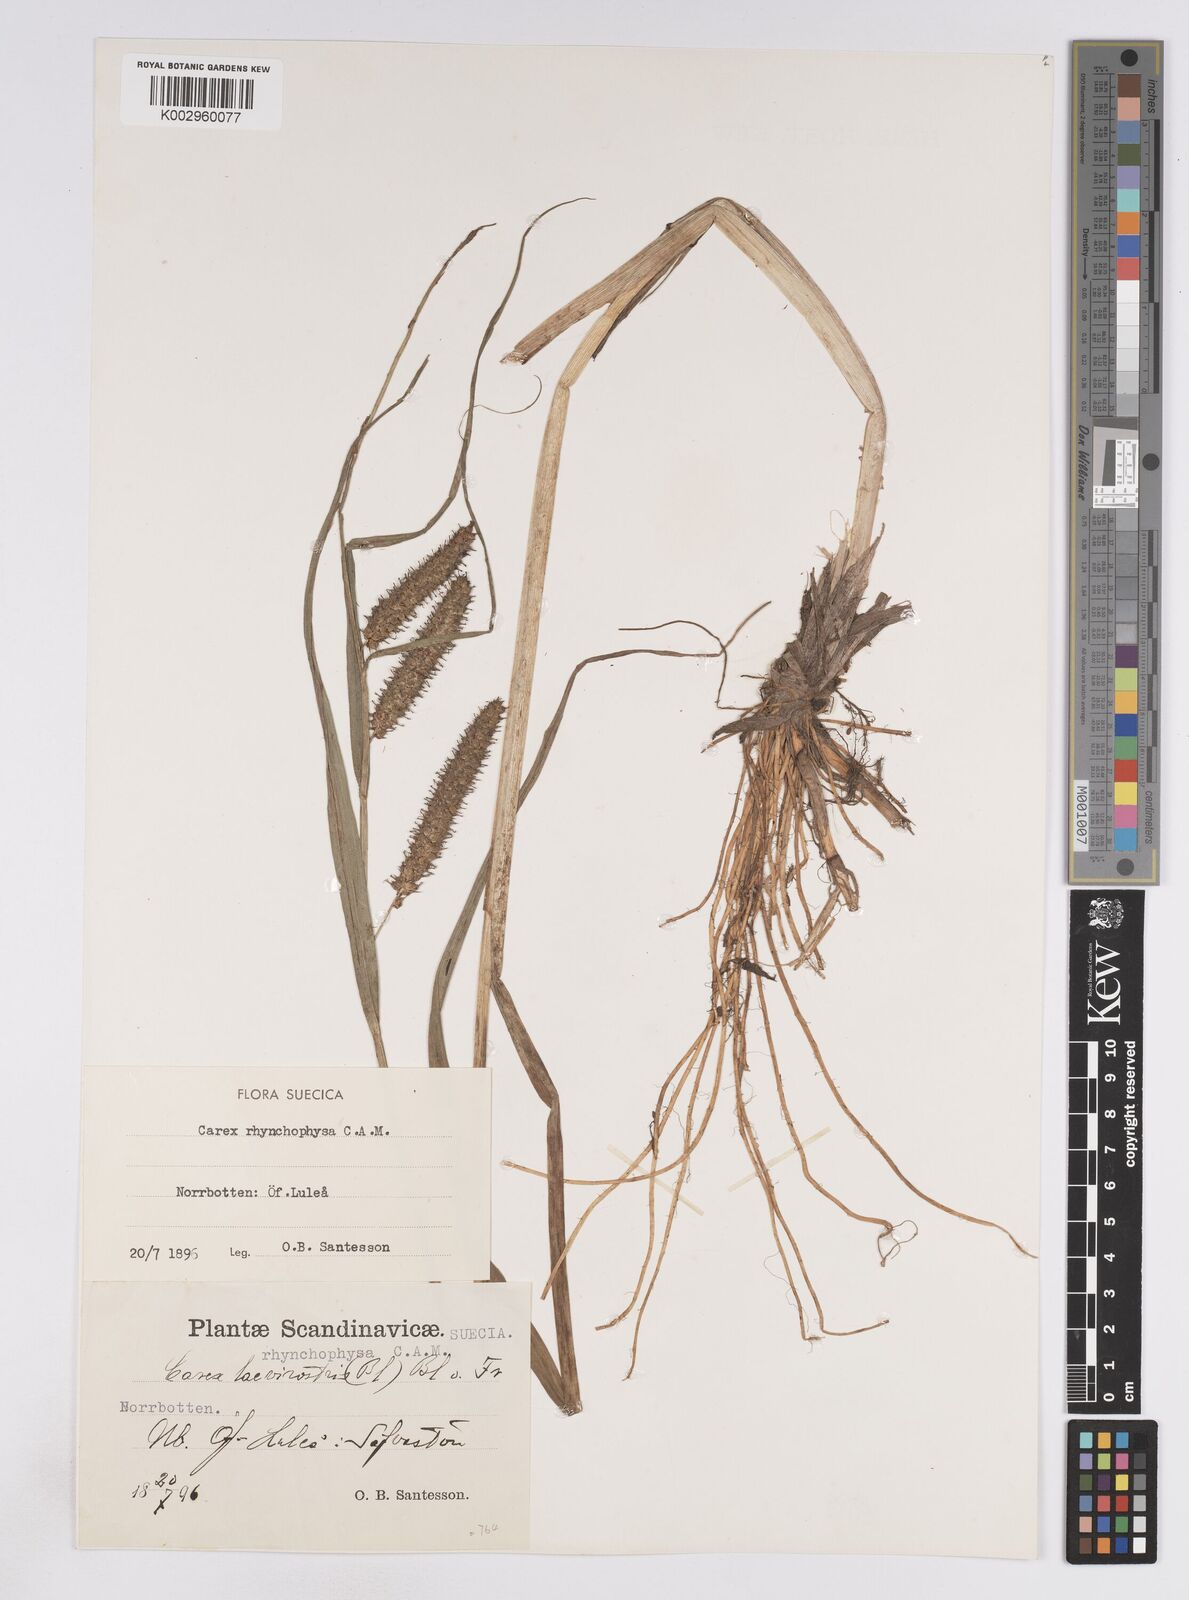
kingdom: Plantae
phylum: Tracheophyta
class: Liliopsida
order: Poales
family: Cyperaceae
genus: Carex
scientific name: Carex utriculata
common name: Beaked sedge
